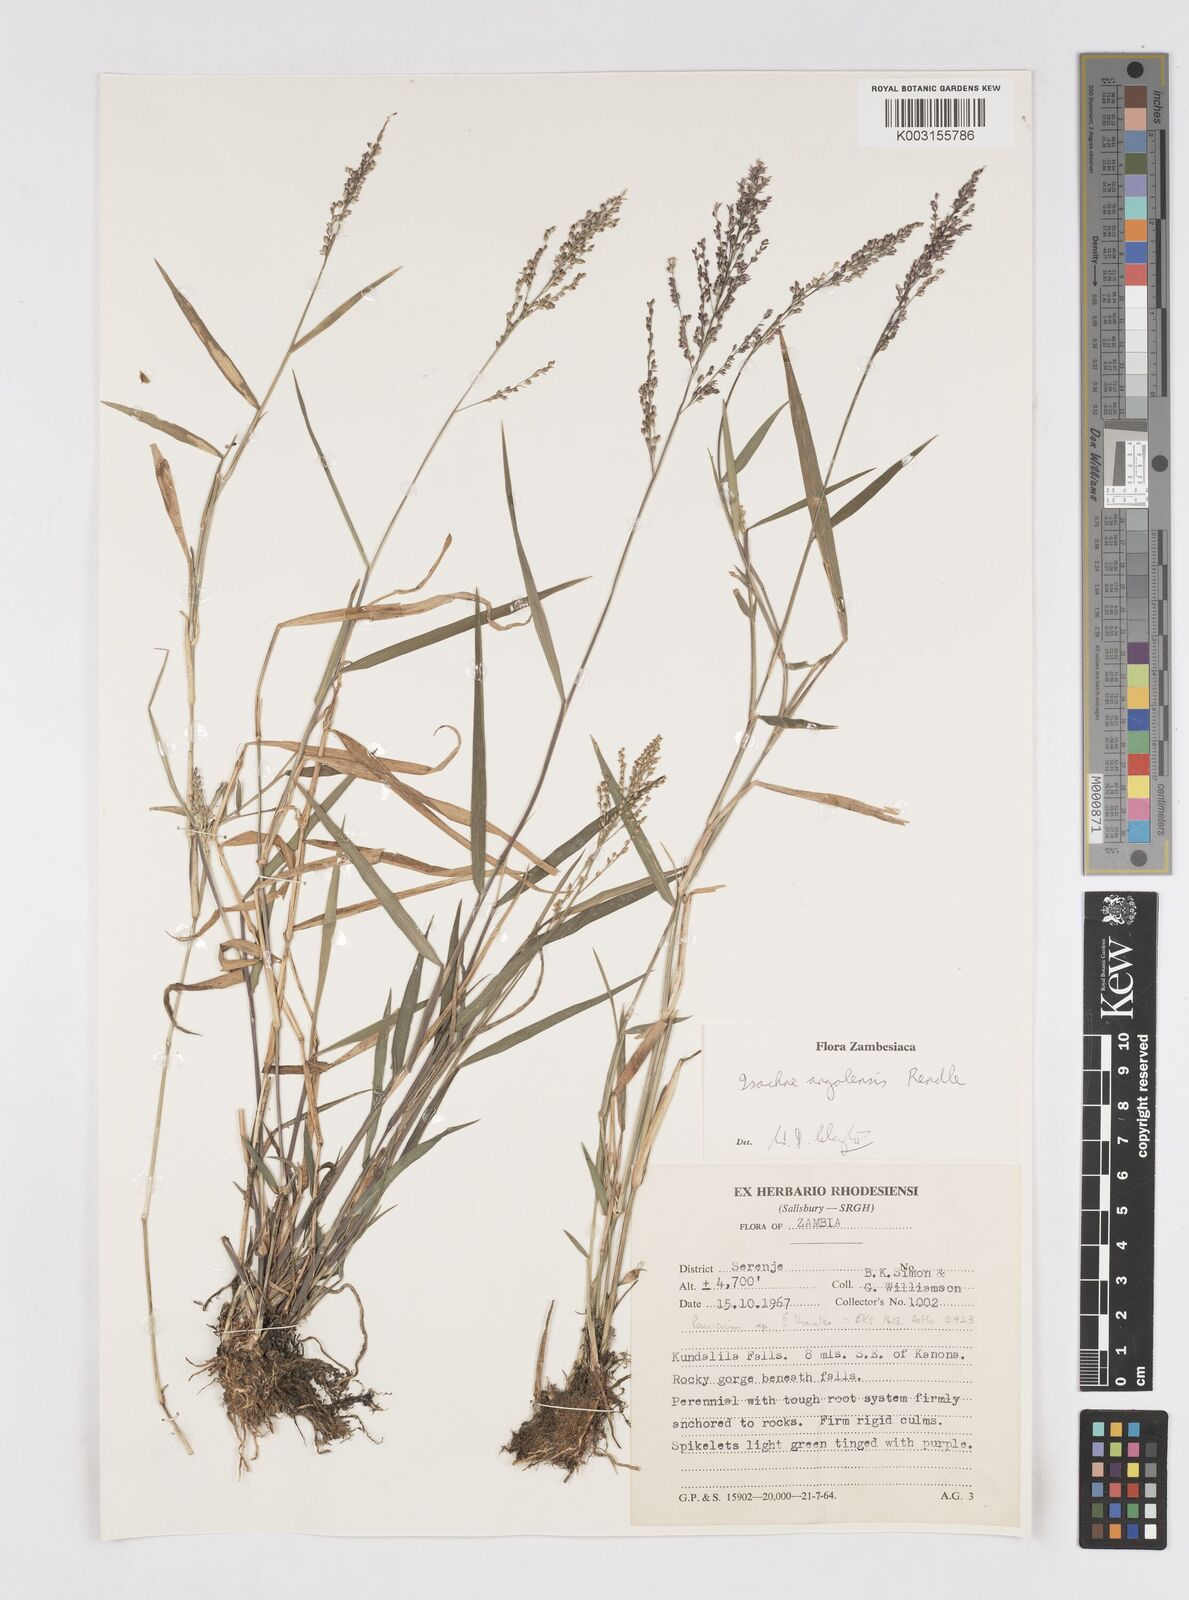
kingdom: Plantae
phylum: Tracheophyta
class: Liliopsida
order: Poales
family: Poaceae
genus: Isachne
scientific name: Isachne angolensis
